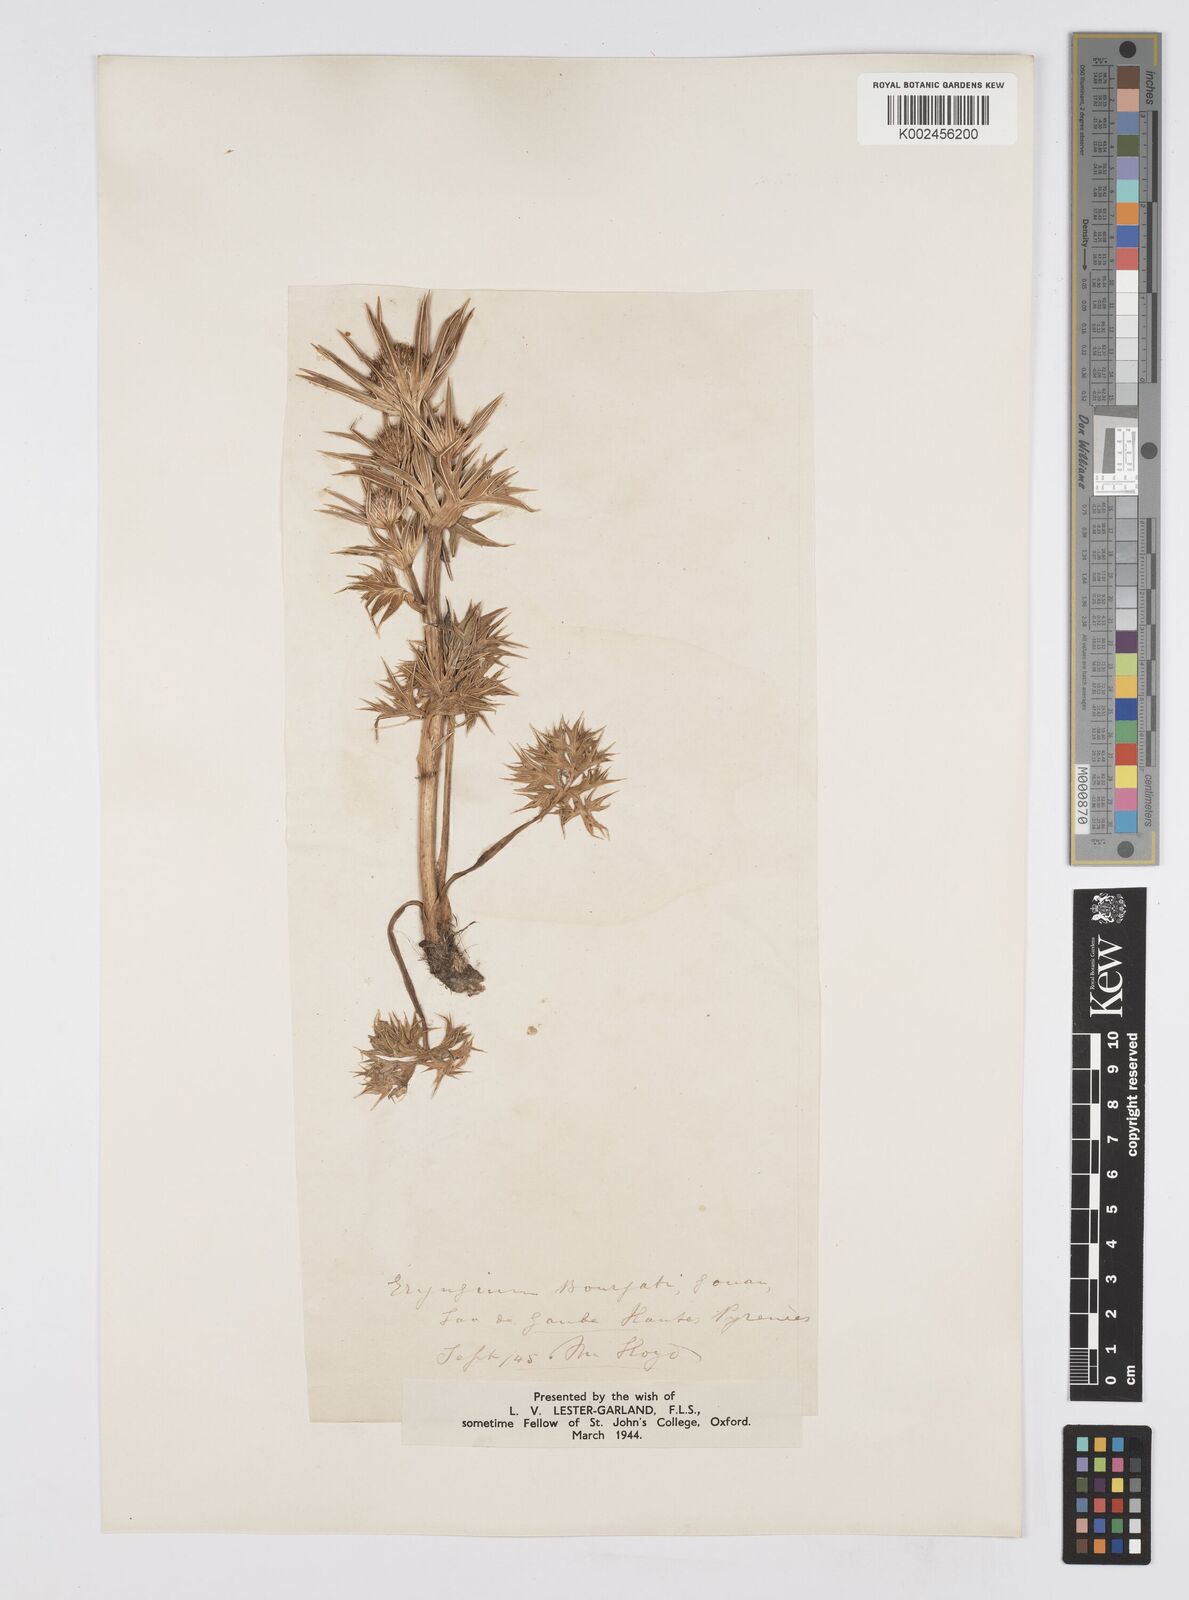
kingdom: Plantae
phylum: Tracheophyta
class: Magnoliopsida
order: Apiales
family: Apiaceae
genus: Eryngium
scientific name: Eryngium bourgatii
